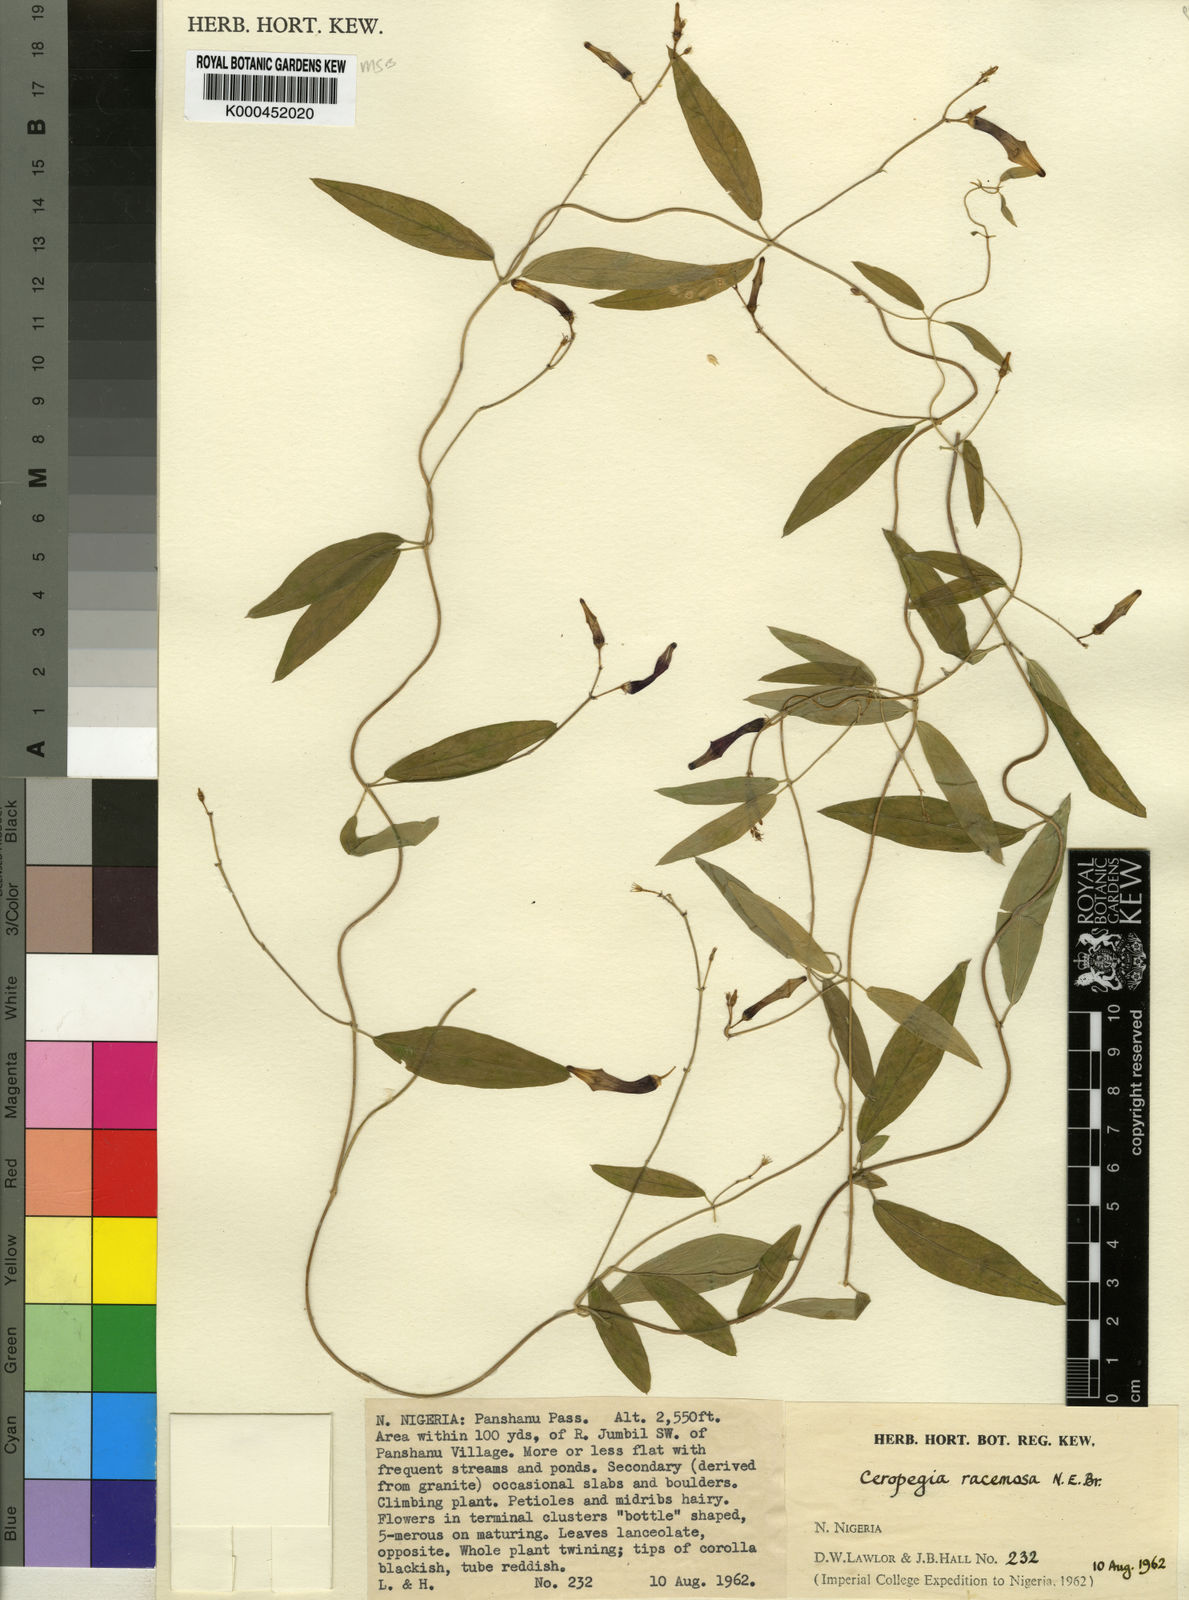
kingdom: Plantae
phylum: Tracheophyta
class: Magnoliopsida
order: Gentianales
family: Apocynaceae
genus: Ceropegia
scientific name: Ceropegia racemosa
